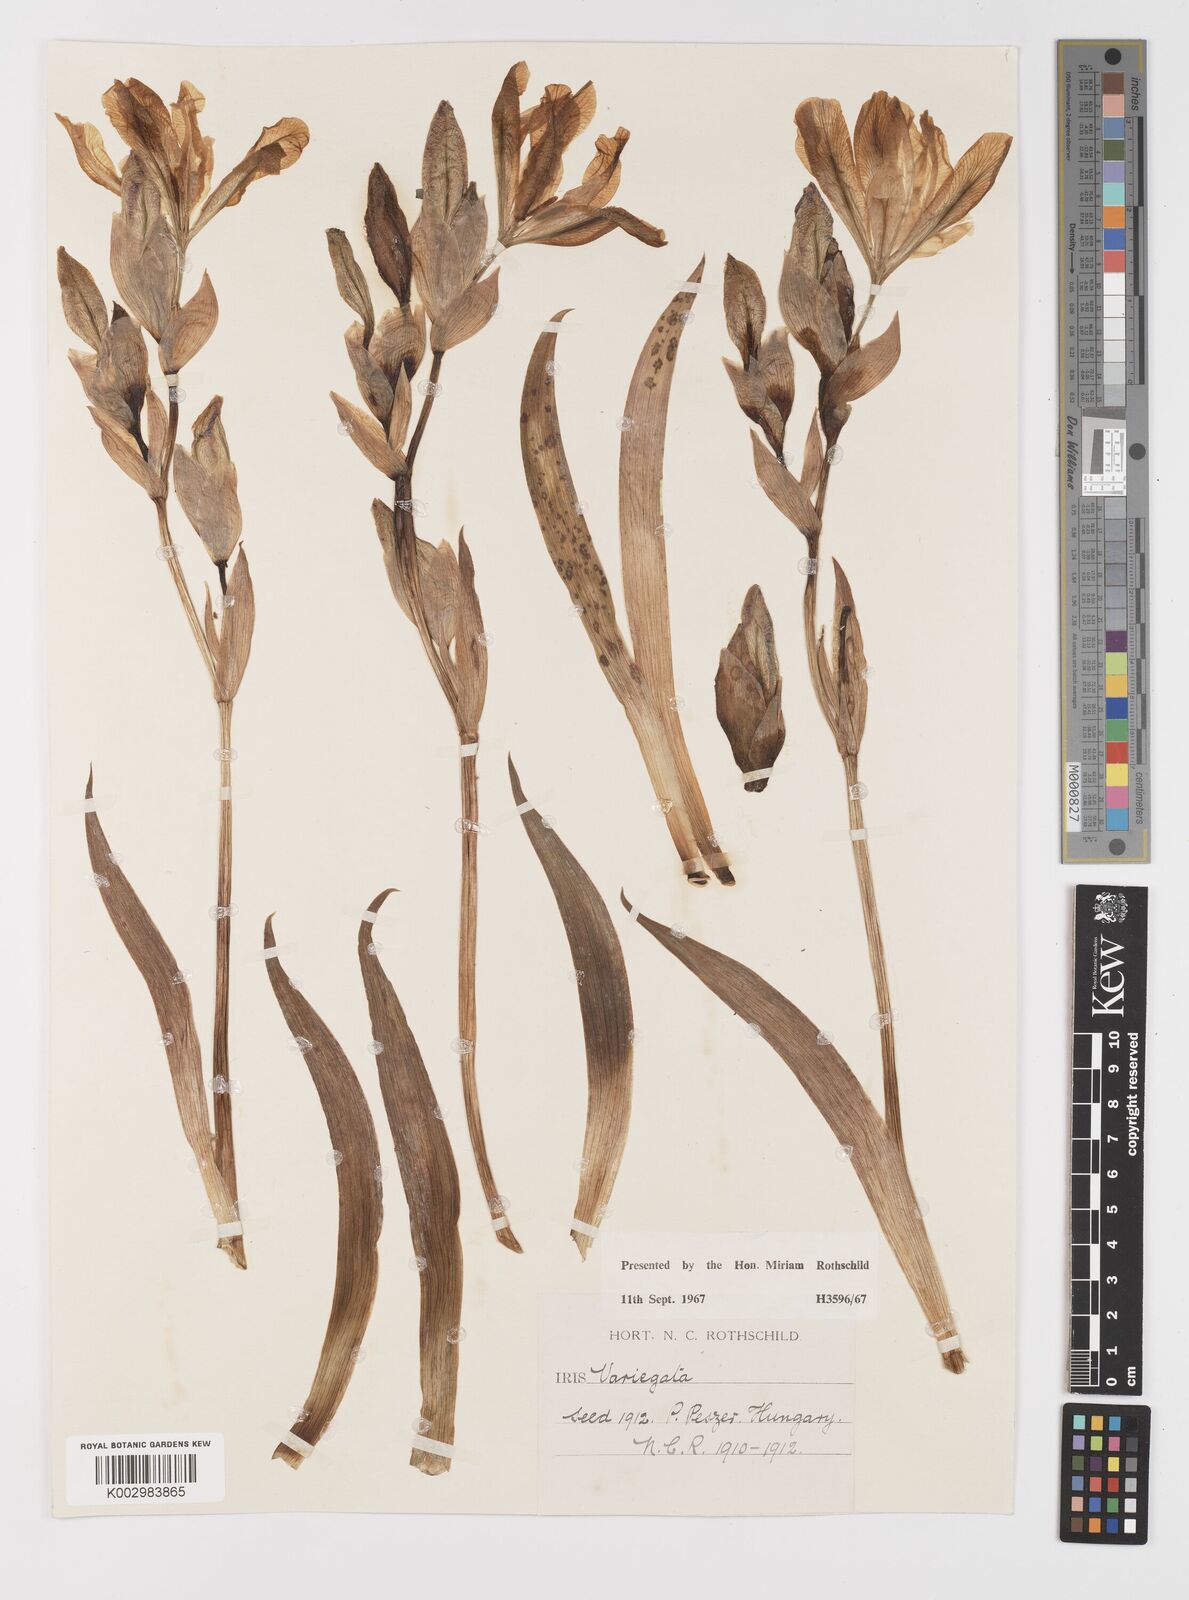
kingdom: Plantae
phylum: Tracheophyta
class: Liliopsida
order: Asparagales
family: Iridaceae
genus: Iris
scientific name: Iris variegata
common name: Hungarian iris
